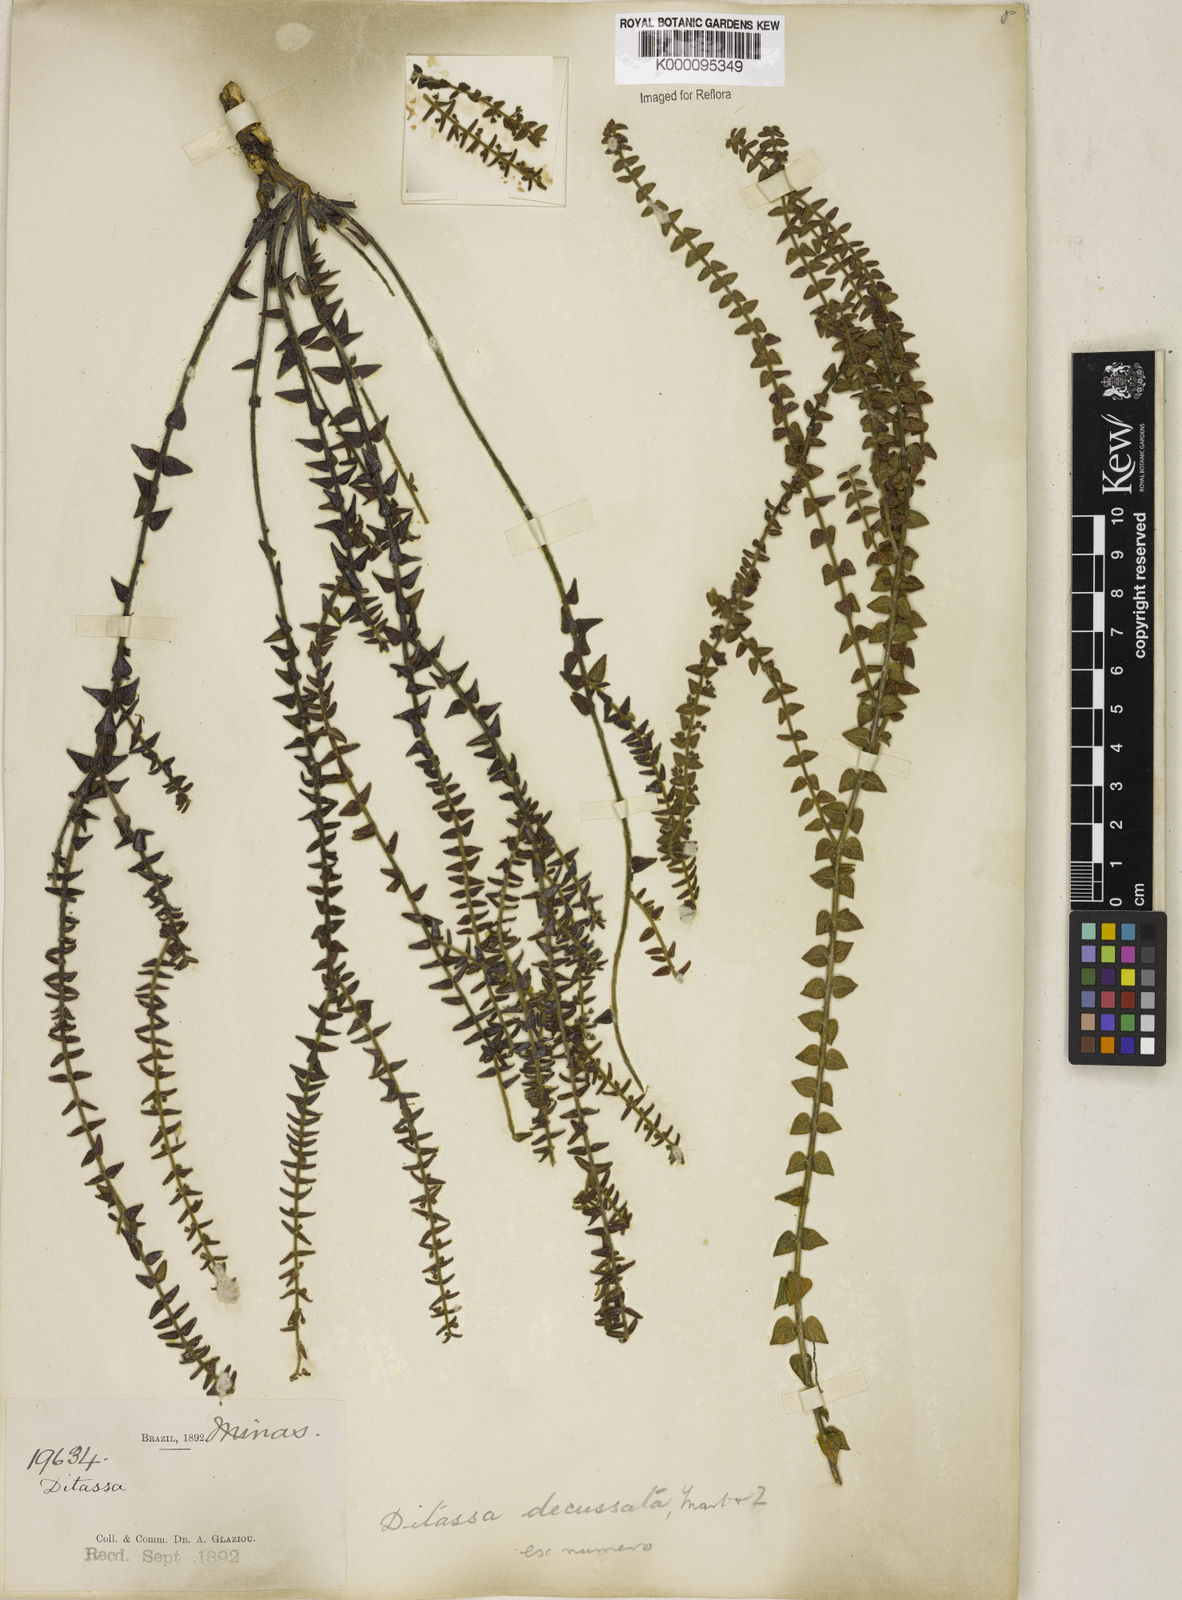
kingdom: Plantae
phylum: Tracheophyta
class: Magnoliopsida
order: Gentianales
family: Apocynaceae
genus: Minaria
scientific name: Minaria decussata
